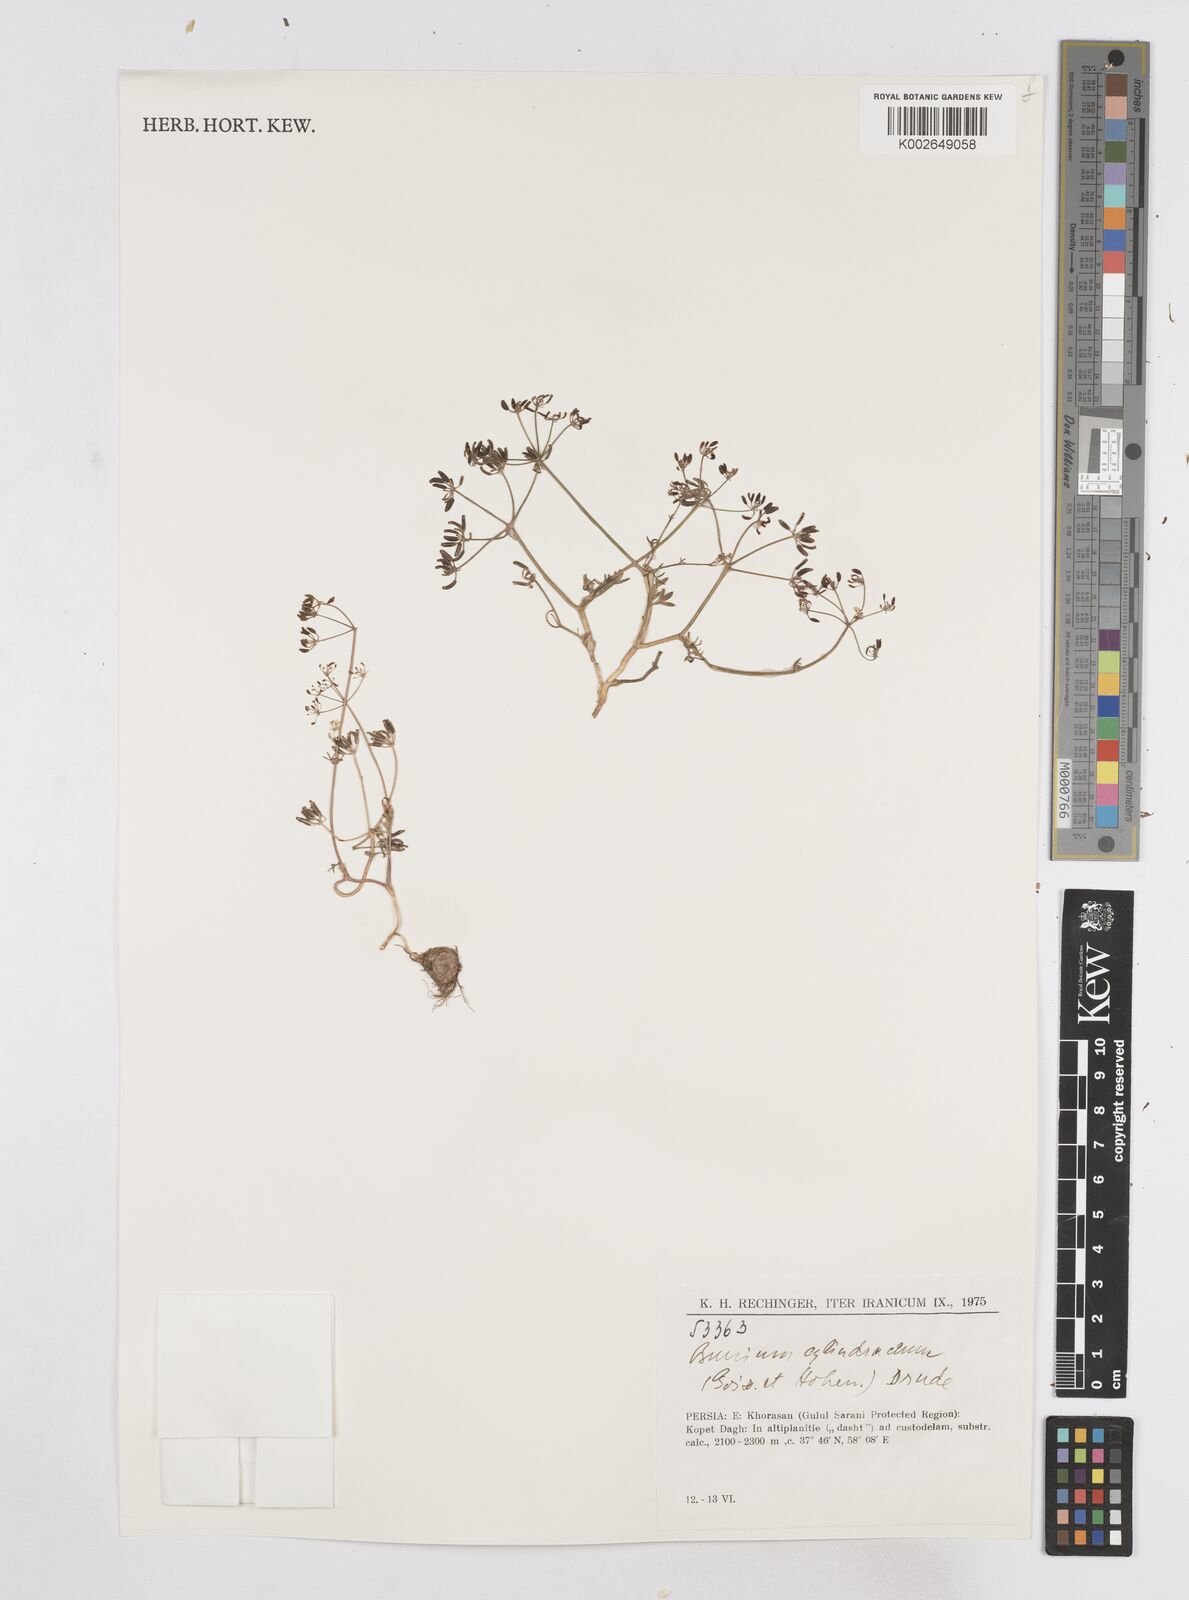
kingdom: Plantae
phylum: Tracheophyta
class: Magnoliopsida
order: Apiales
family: Apiaceae
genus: Elwendia
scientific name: Elwendia cylindrica
